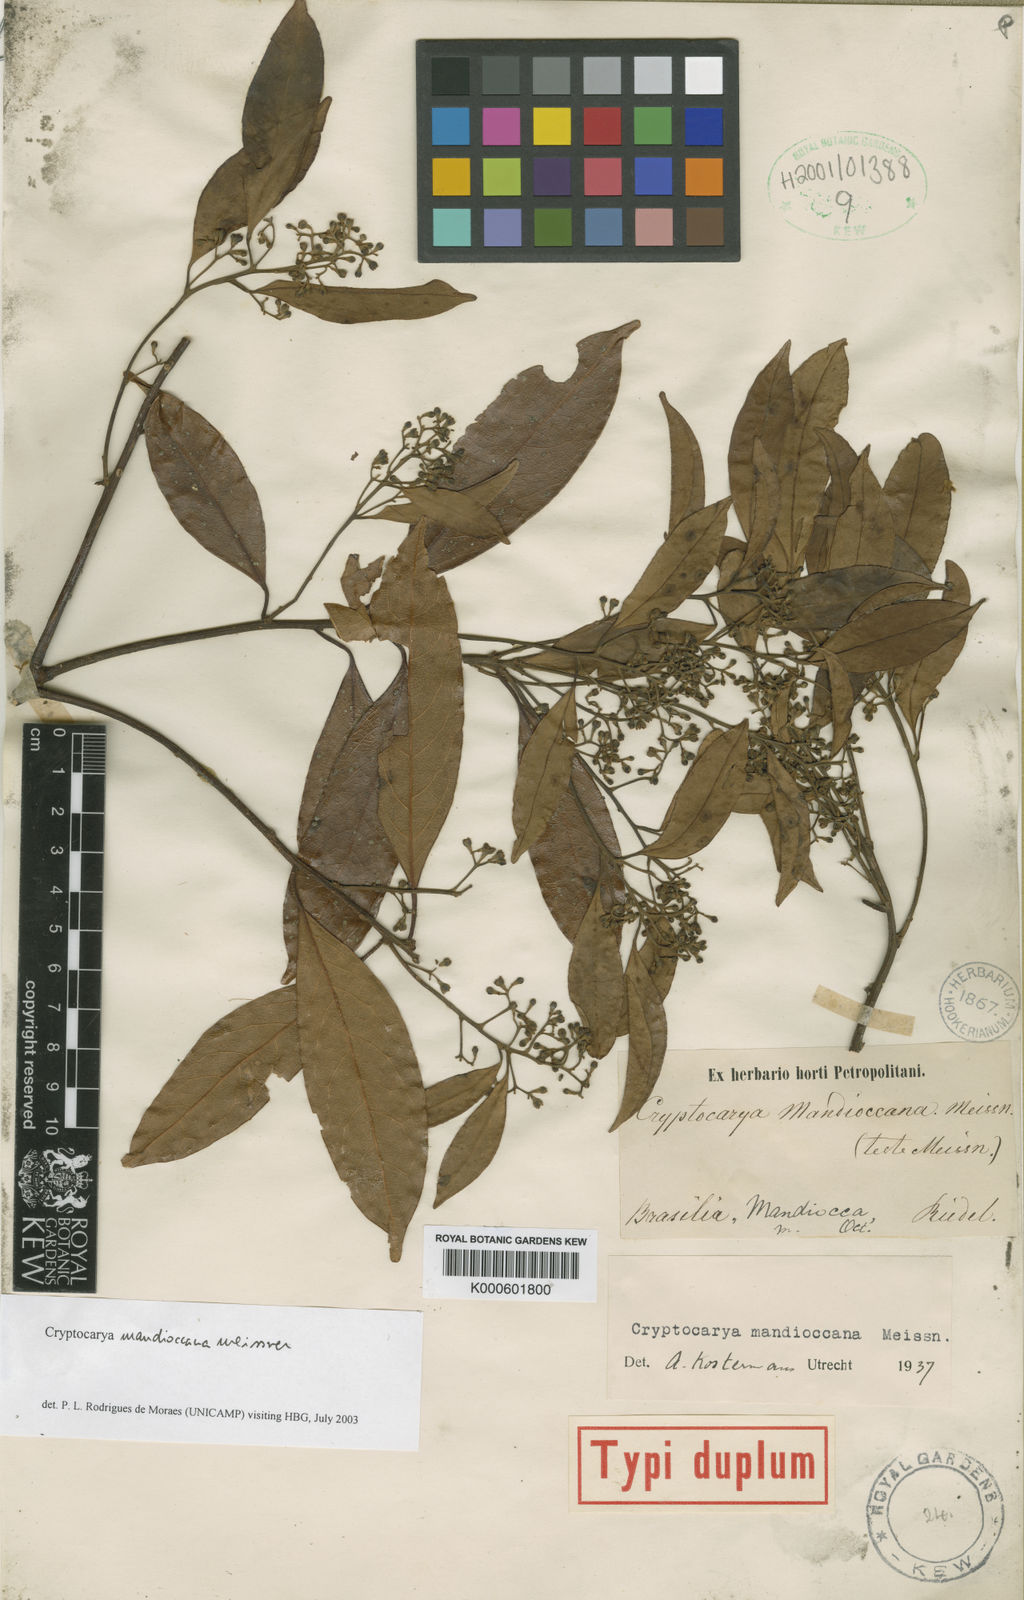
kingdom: Plantae
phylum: Tracheophyta
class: Magnoliopsida
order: Laurales
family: Lauraceae
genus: Cryptocarya
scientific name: Cryptocarya mandioccana
